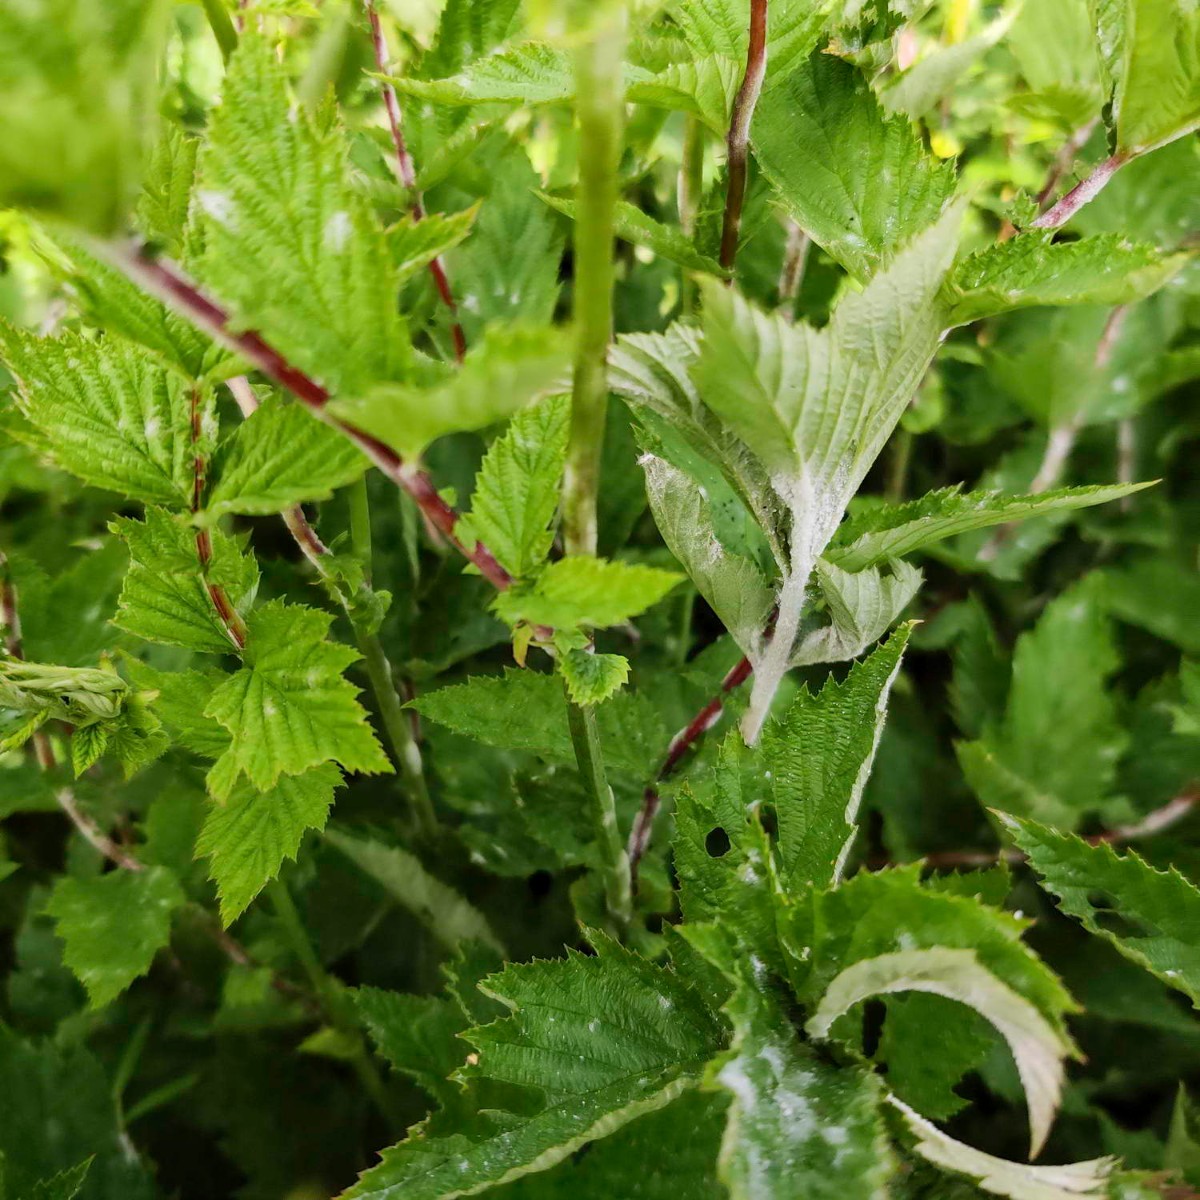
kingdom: Fungi
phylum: Ascomycota
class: Leotiomycetes
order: Helotiales
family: Erysiphaceae
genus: Podosphaera
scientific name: Podosphaera filipendulae
